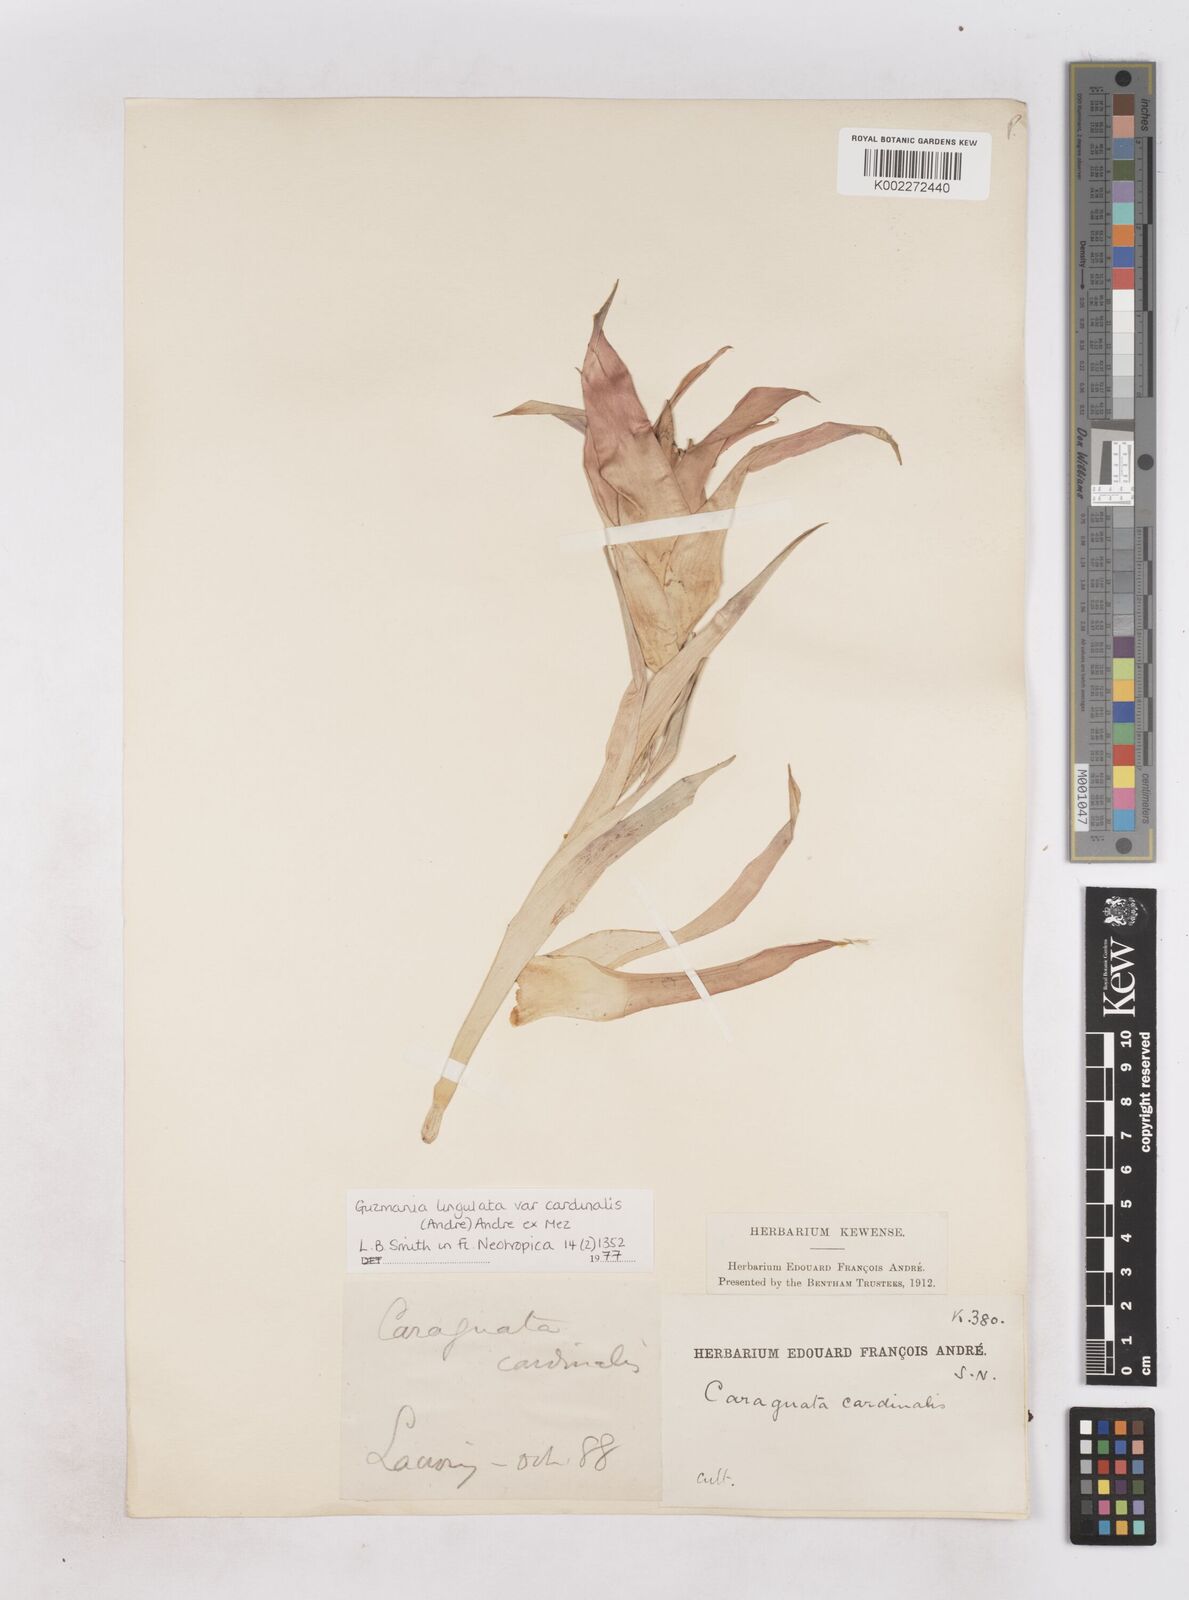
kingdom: Plantae
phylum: Tracheophyta
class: Liliopsida
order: Poales
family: Bromeliaceae
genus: Guzmania
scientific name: Guzmania lingulata
